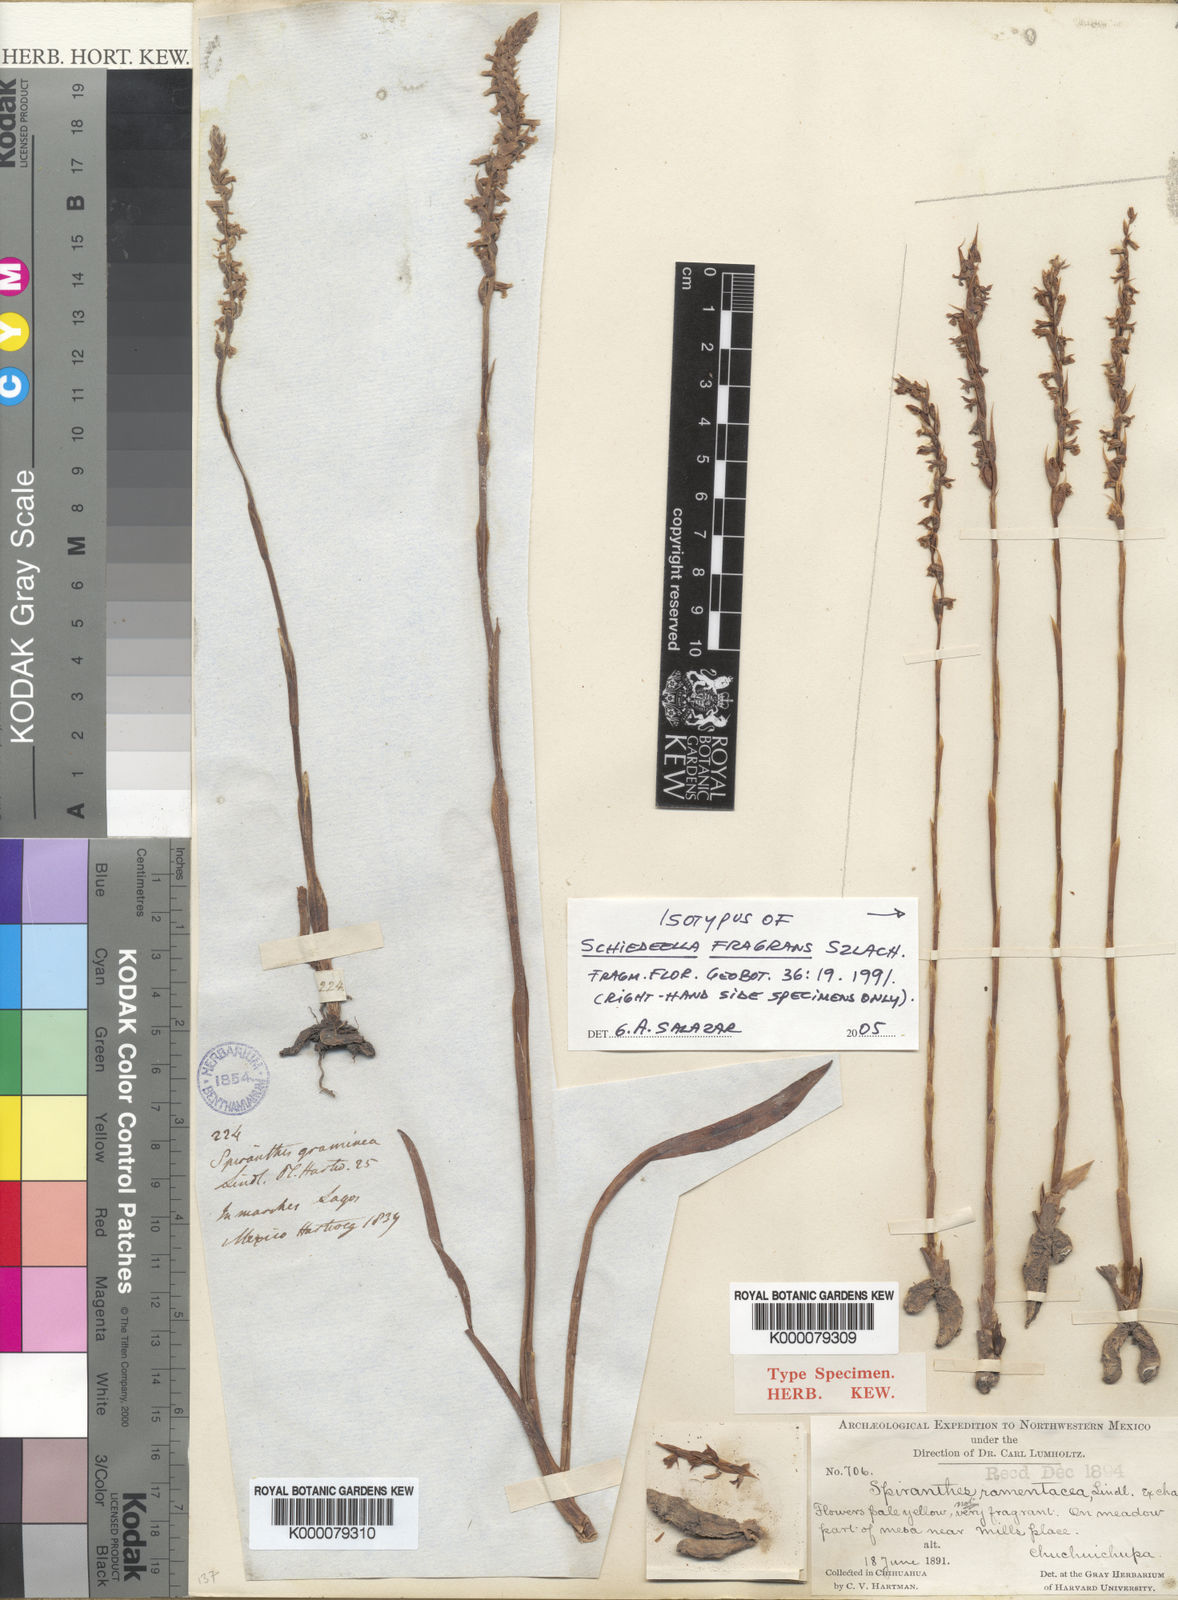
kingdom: Plantae
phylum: Tracheophyta
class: Liliopsida
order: Asparagales
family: Orchidaceae
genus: Schiedeella
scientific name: Schiedeella fragrans
